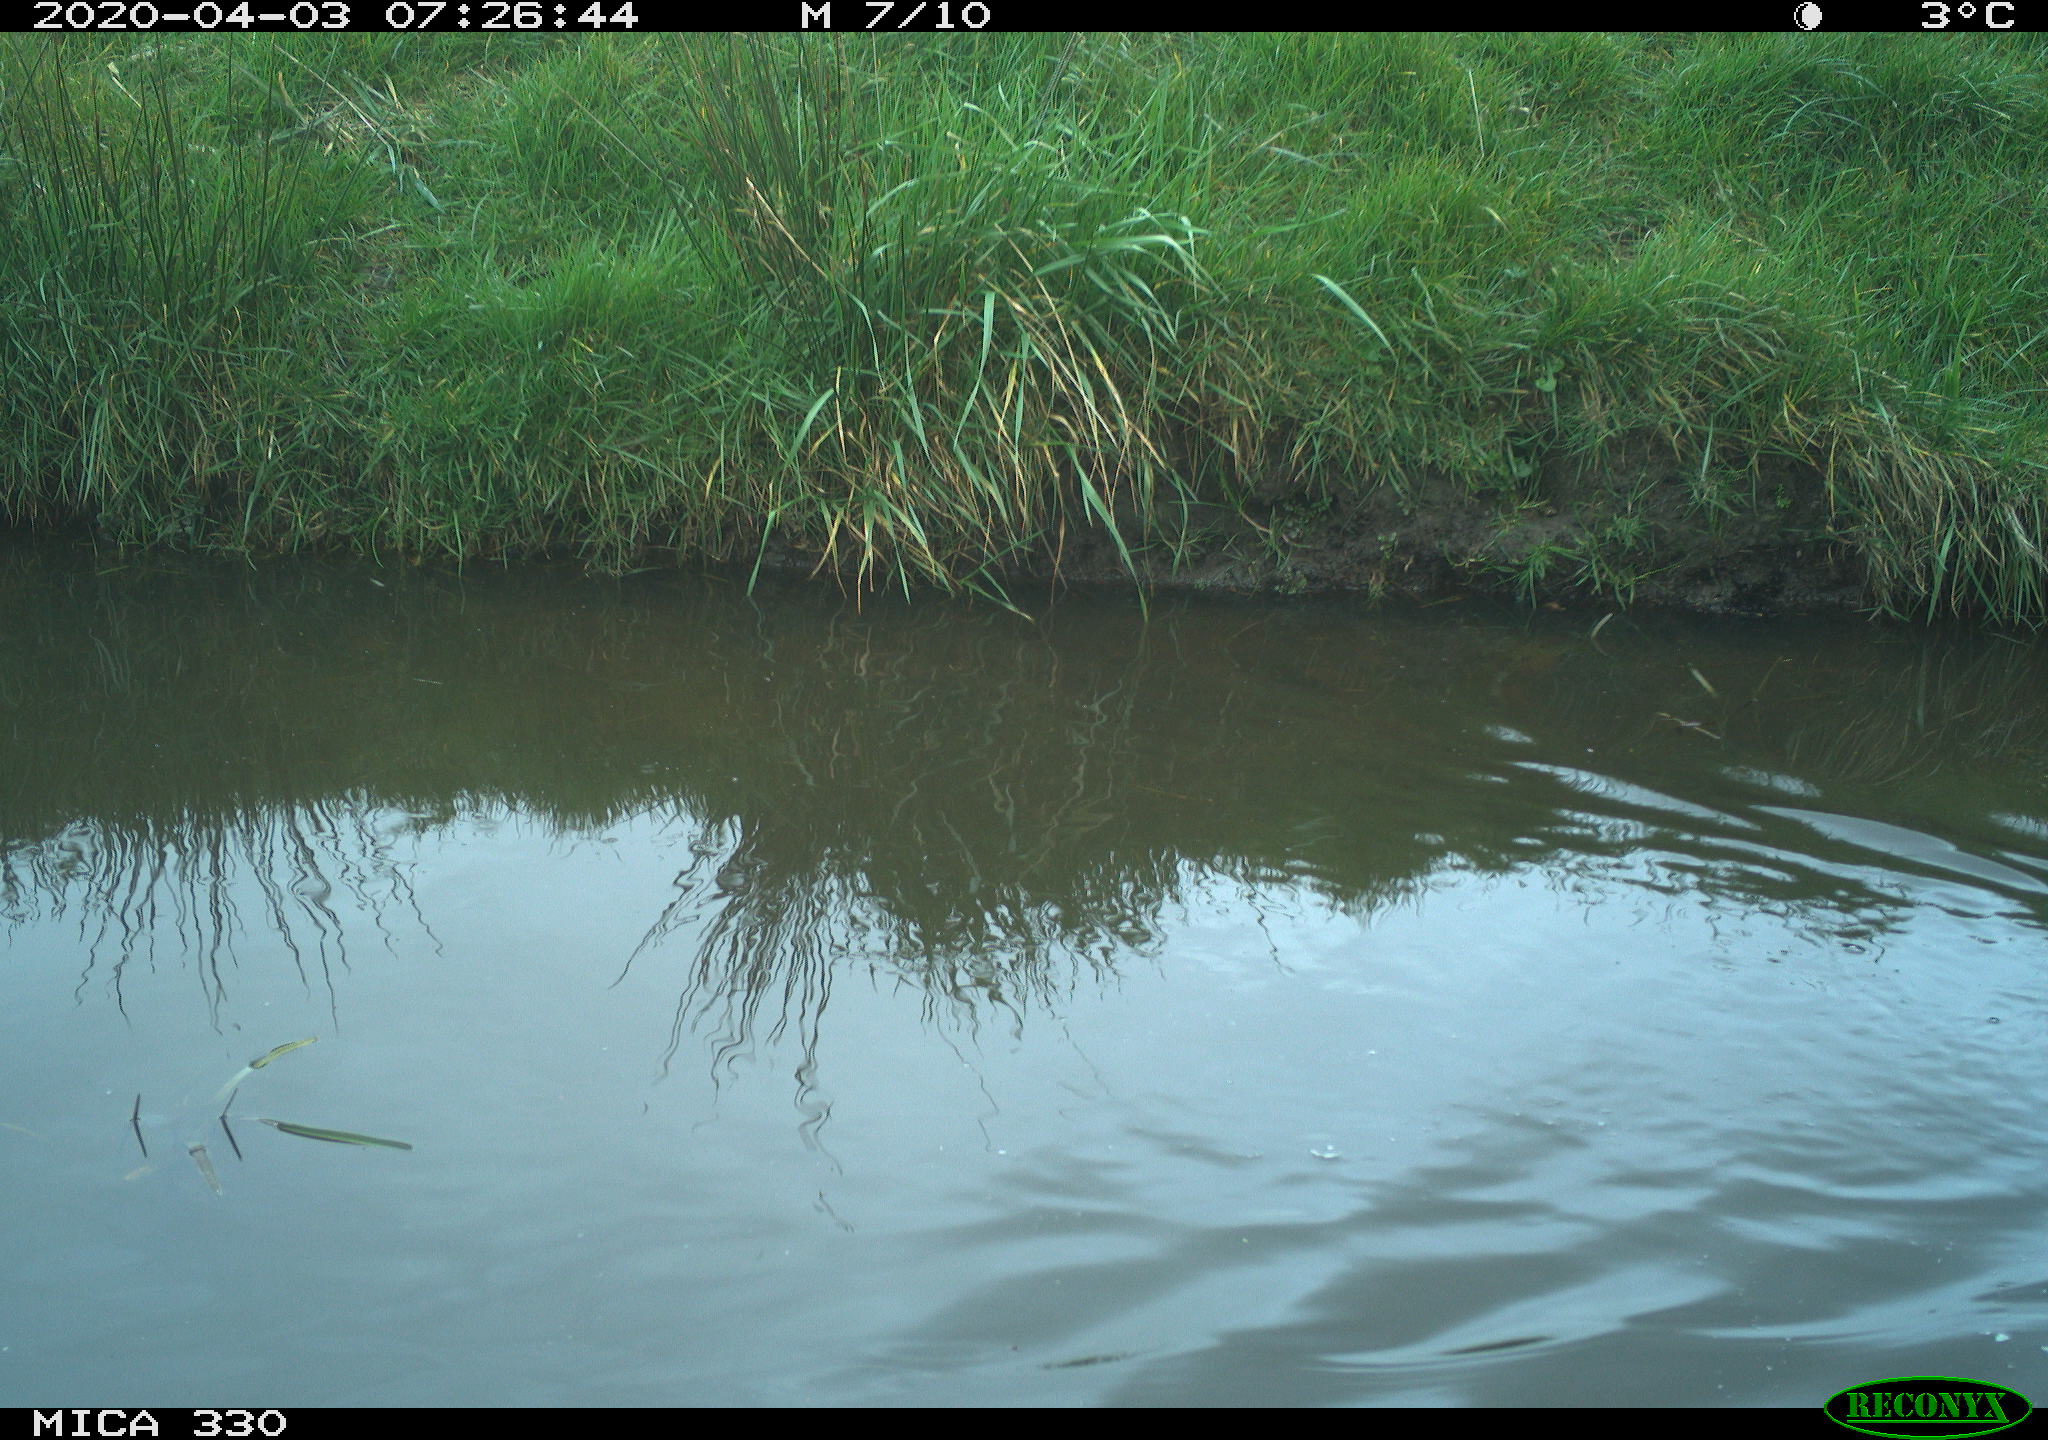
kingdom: Animalia
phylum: Chordata
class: Aves
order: Anseriformes
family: Anatidae
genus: Mareca
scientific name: Mareca strepera
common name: Gadwall
